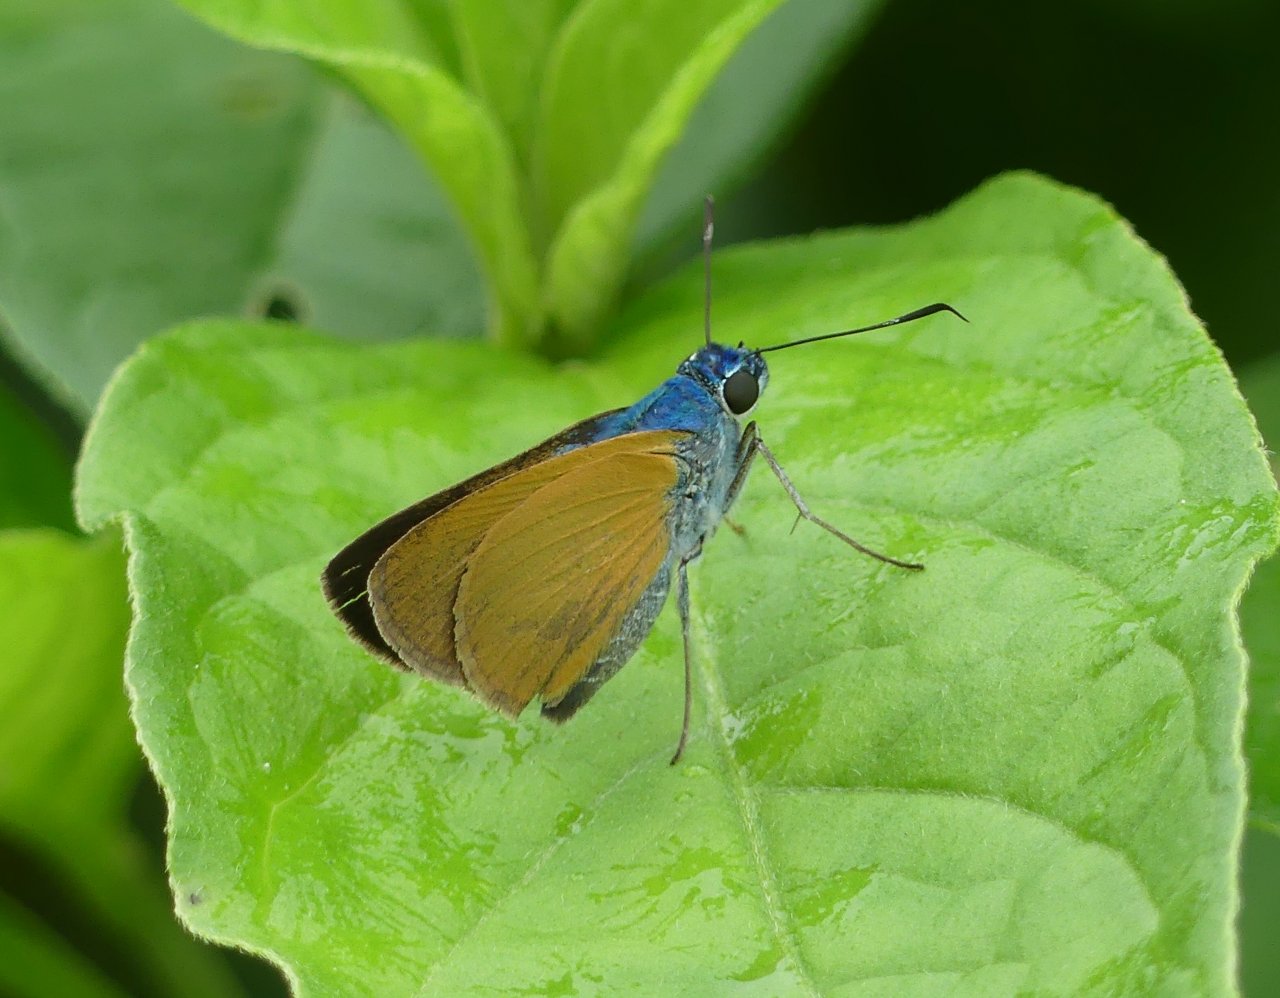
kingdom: Animalia
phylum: Arthropoda
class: Insecta
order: Lepidoptera
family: Hesperiidae
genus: Onophas
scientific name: Onophas columbaria
